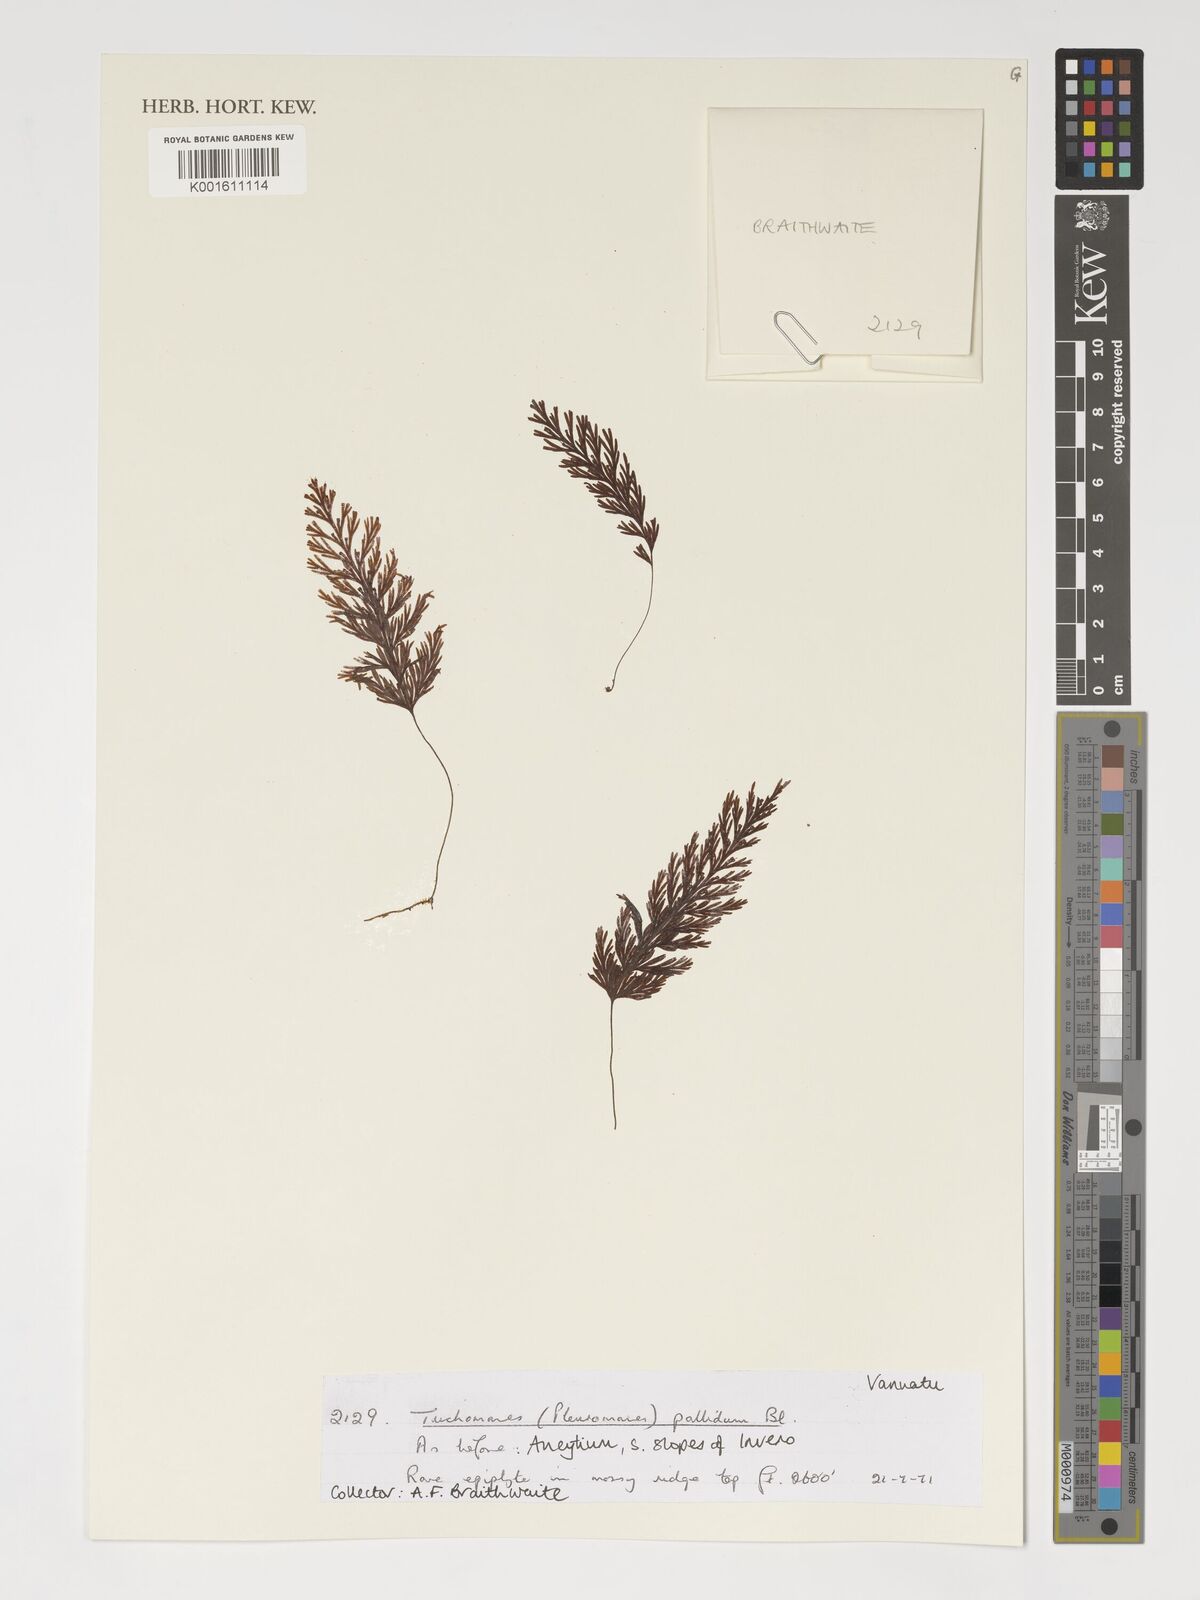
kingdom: Plantae
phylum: Tracheophyta
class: Polypodiopsida
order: Hymenophyllales
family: Hymenophyllaceae
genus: Hymenophyllum
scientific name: Hymenophyllum pallidum
